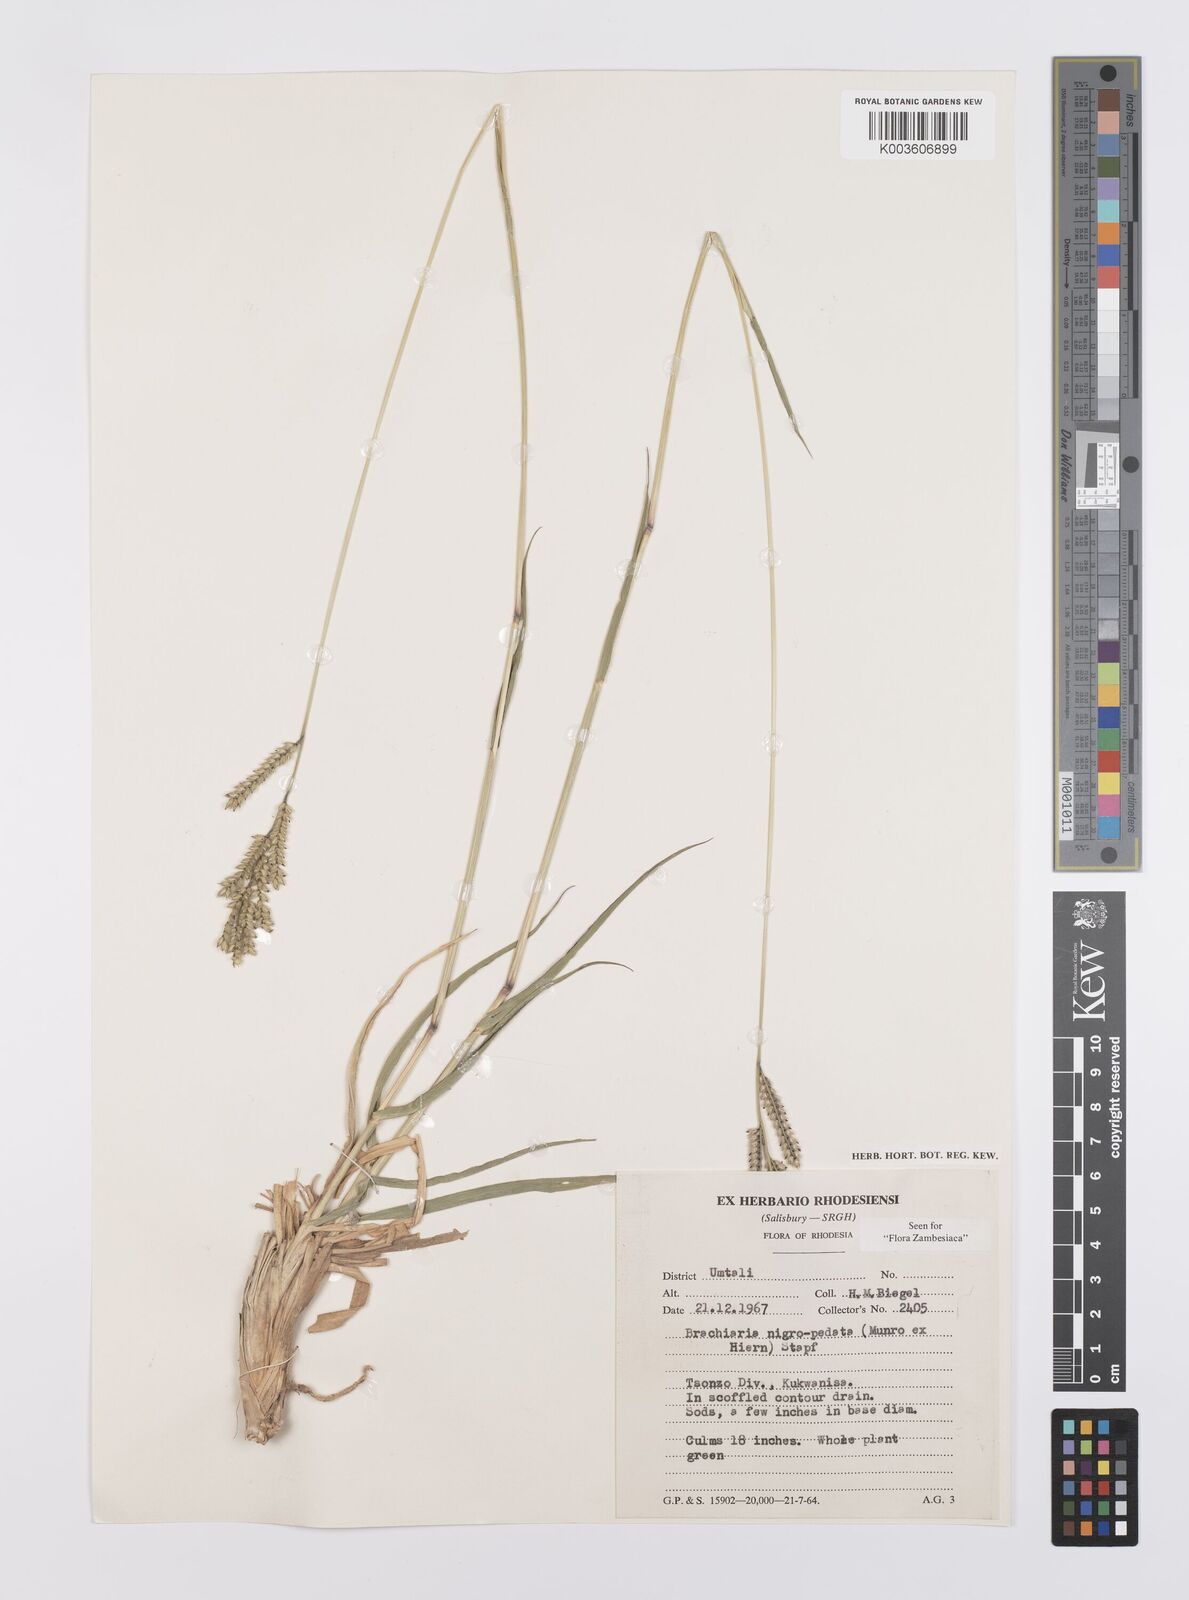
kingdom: Plantae
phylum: Tracheophyta
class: Liliopsida
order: Poales
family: Poaceae
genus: Urochloa
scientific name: Urochloa nigropedata
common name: Spotted signal grass
